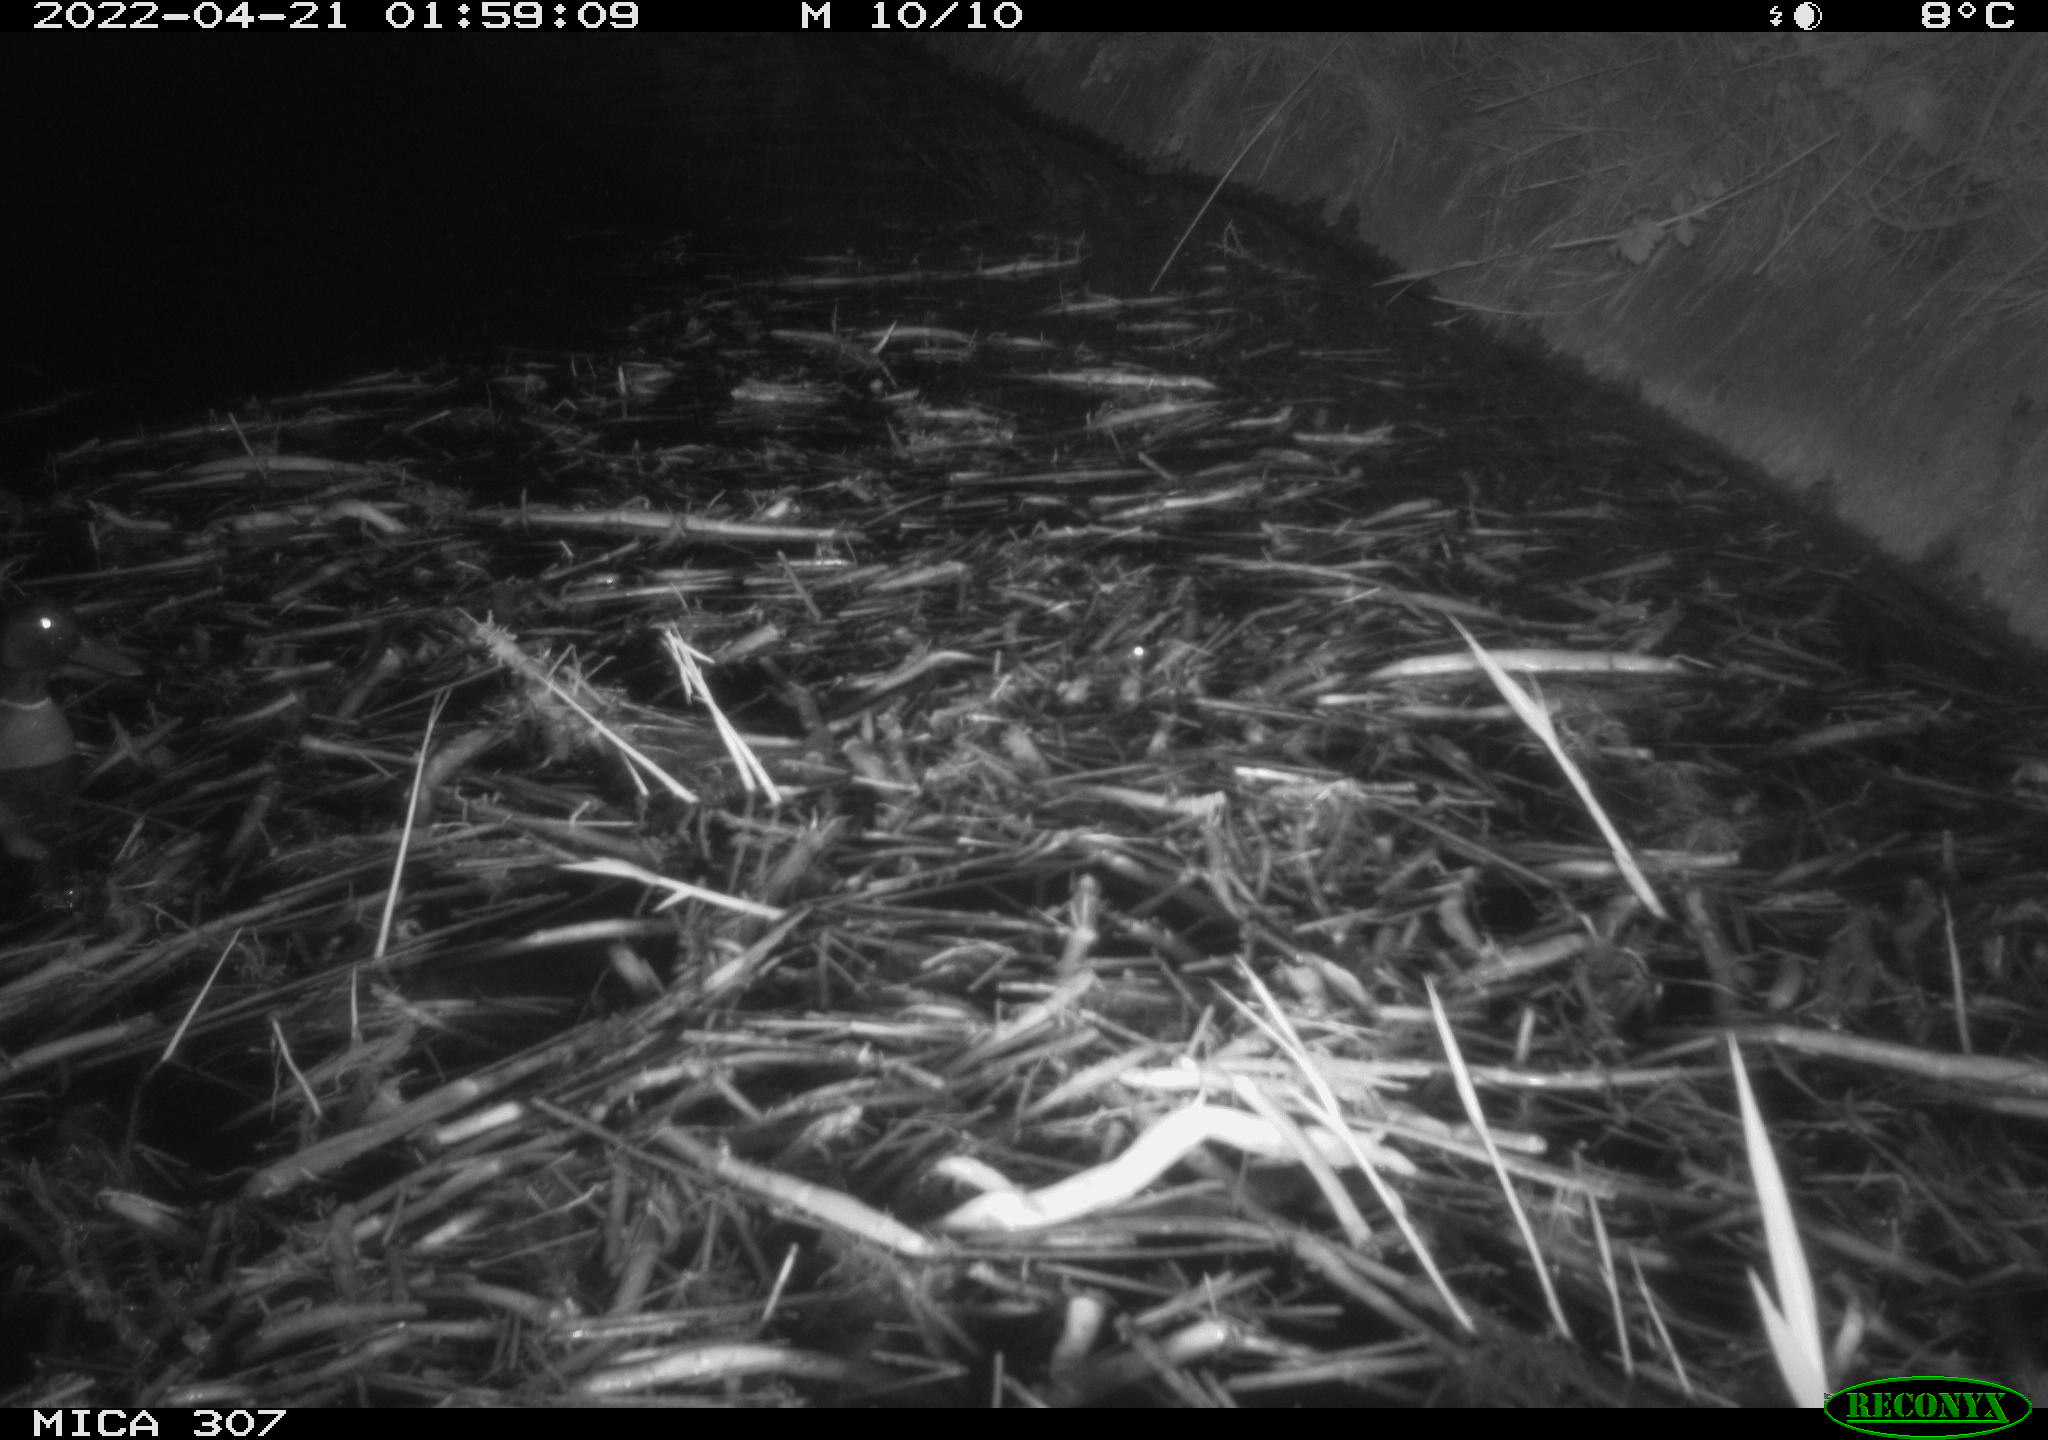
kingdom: Animalia
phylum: Chordata
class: Aves
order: Anseriformes
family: Anatidae
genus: Anas
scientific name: Anas platyrhynchos
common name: Mallard
